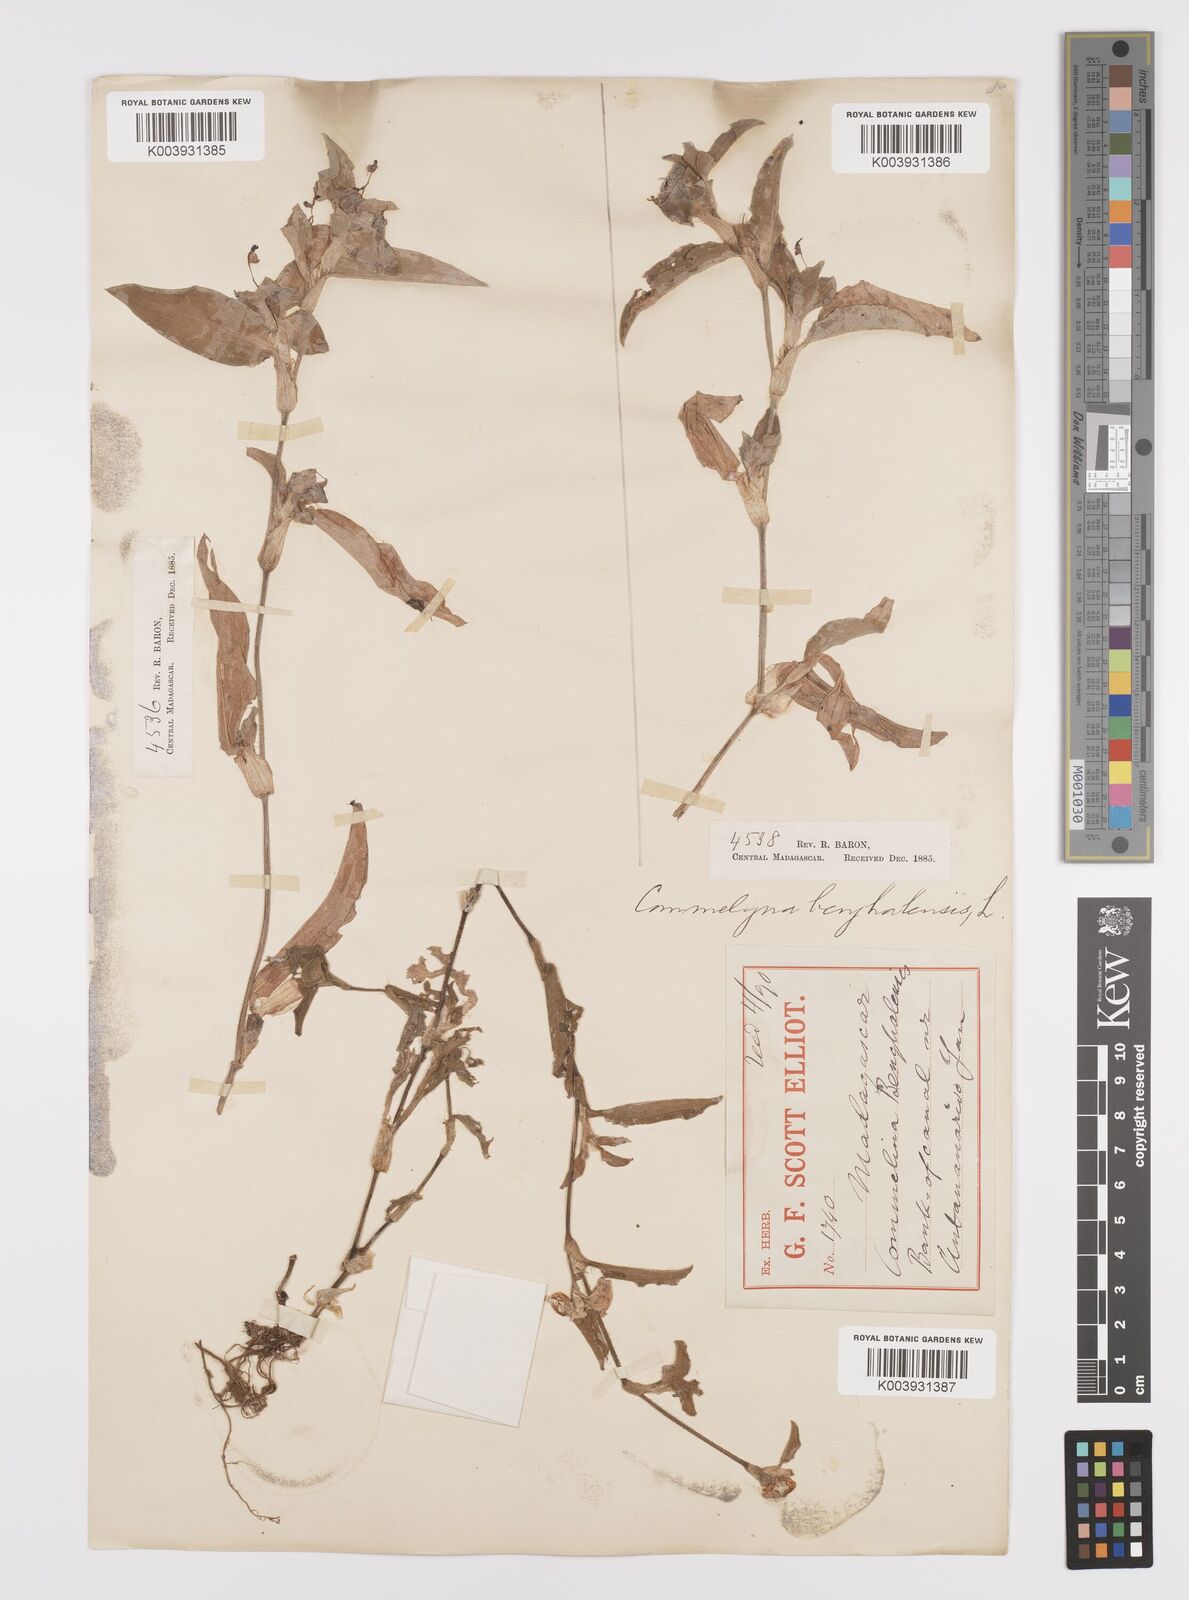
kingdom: Plantae
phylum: Tracheophyta
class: Liliopsida
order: Commelinales
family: Commelinaceae
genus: Commelina
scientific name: Commelina benghalensis
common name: Jio
